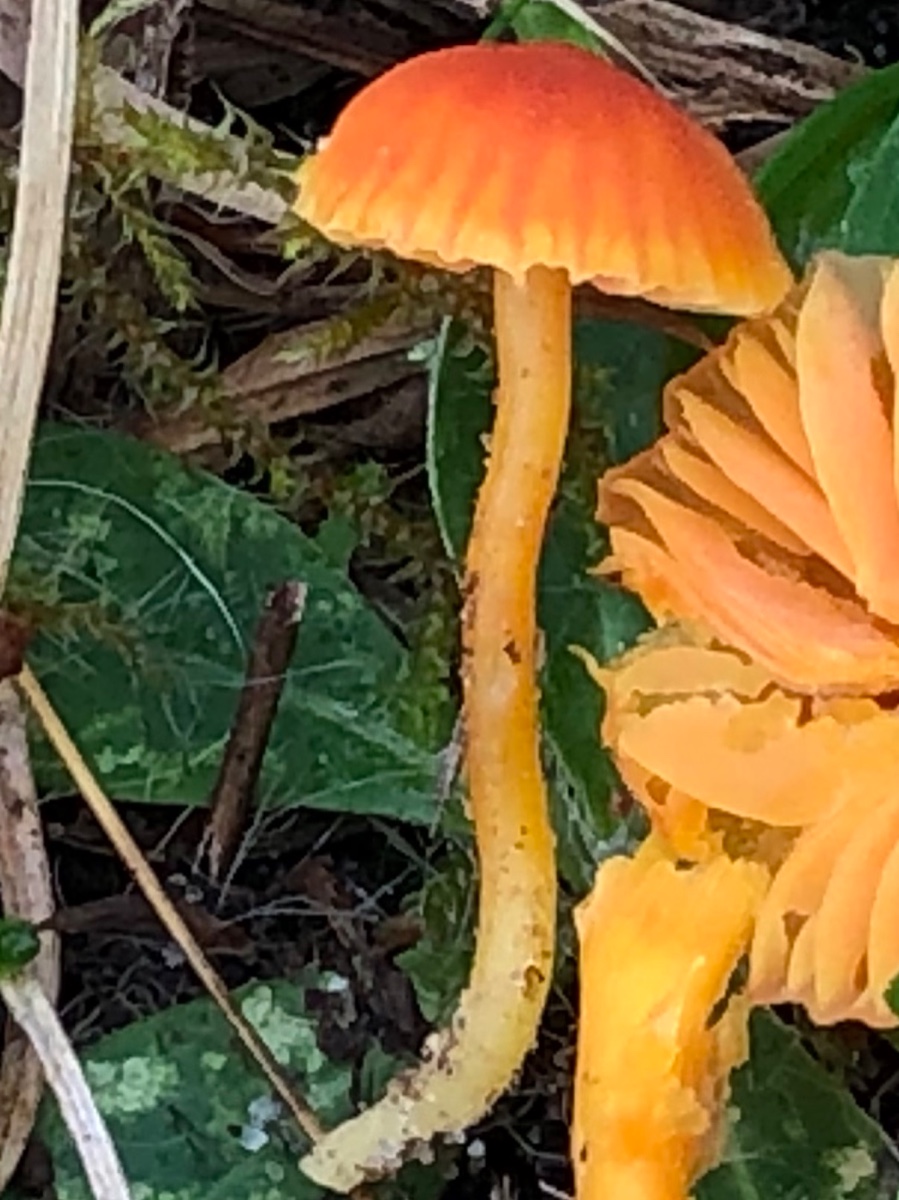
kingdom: Fungi
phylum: Basidiomycota
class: Agaricomycetes
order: Agaricales
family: Hygrophoraceae
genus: Hygrocybe
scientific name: Hygrocybe mucronella
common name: bitter vokshat
